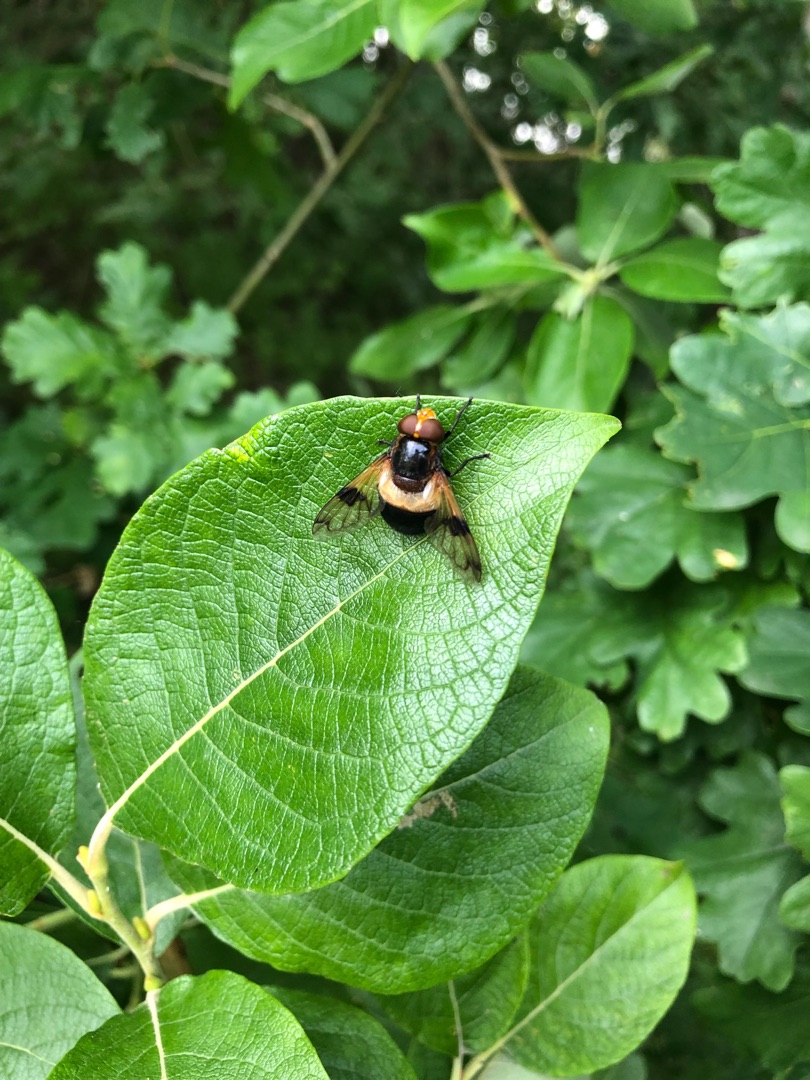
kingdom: Animalia
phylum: Arthropoda
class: Insecta
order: Diptera
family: Syrphidae
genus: Volucella
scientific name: Volucella pellucens
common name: Hvidbåndet humlesvirreflue
